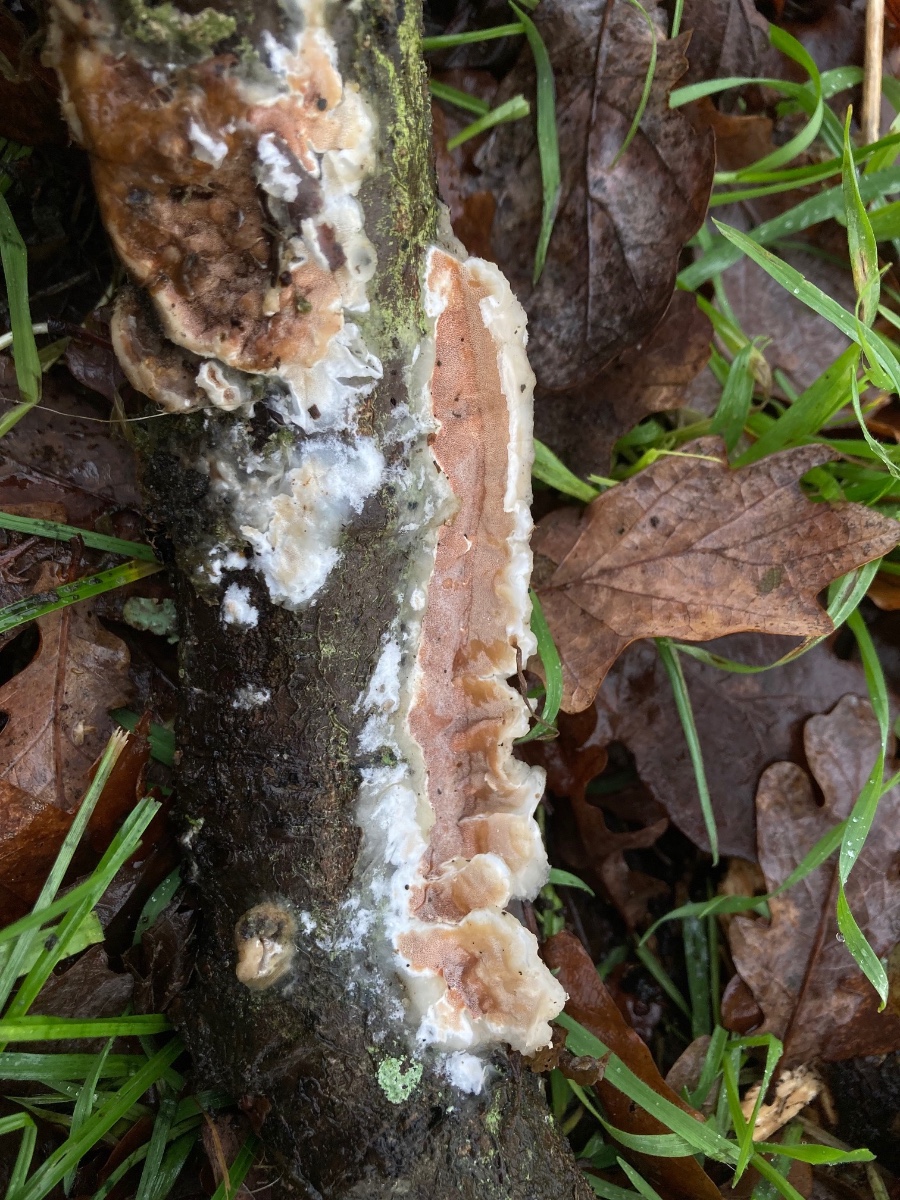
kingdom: Fungi
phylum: Basidiomycota
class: Agaricomycetes
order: Polyporales
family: Irpicaceae
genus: Vitreoporus
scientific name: Vitreoporus dichrous
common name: tofarvet foldporesvamp
